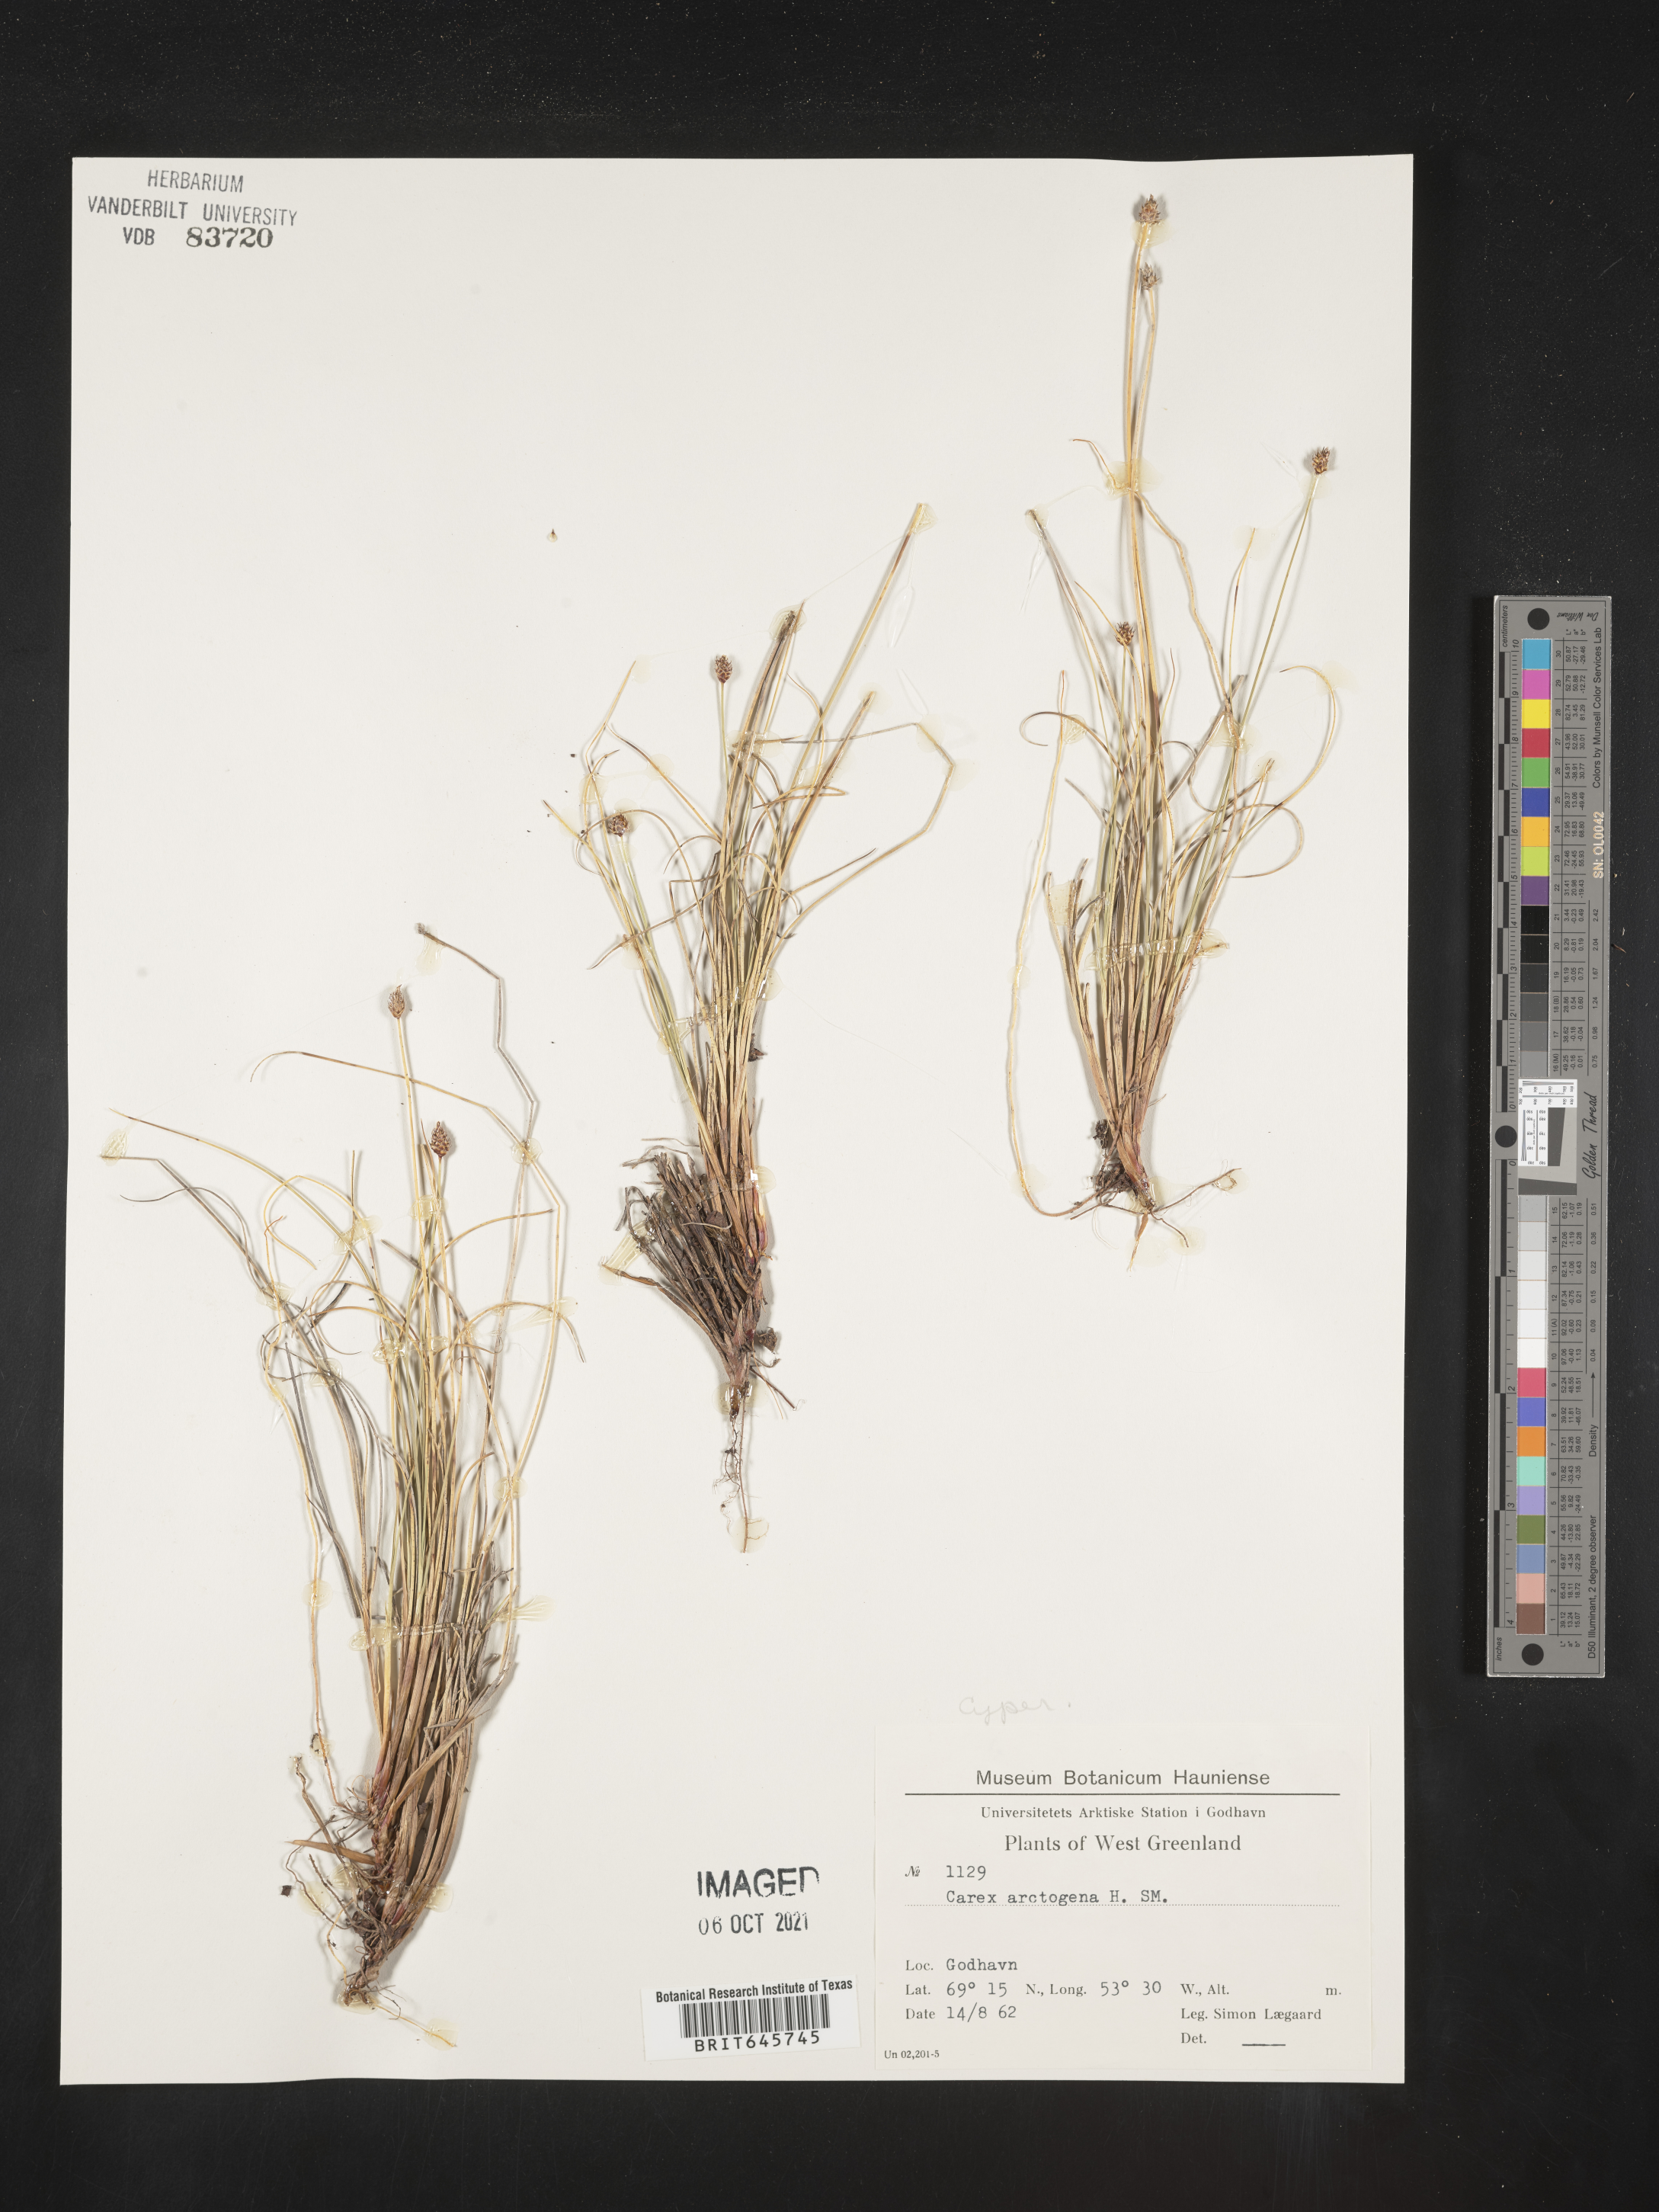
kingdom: Plantae
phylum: Tracheophyta
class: Liliopsida
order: Poales
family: Cyperaceae
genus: Carex
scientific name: Carex arctogena
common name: Black sedge
